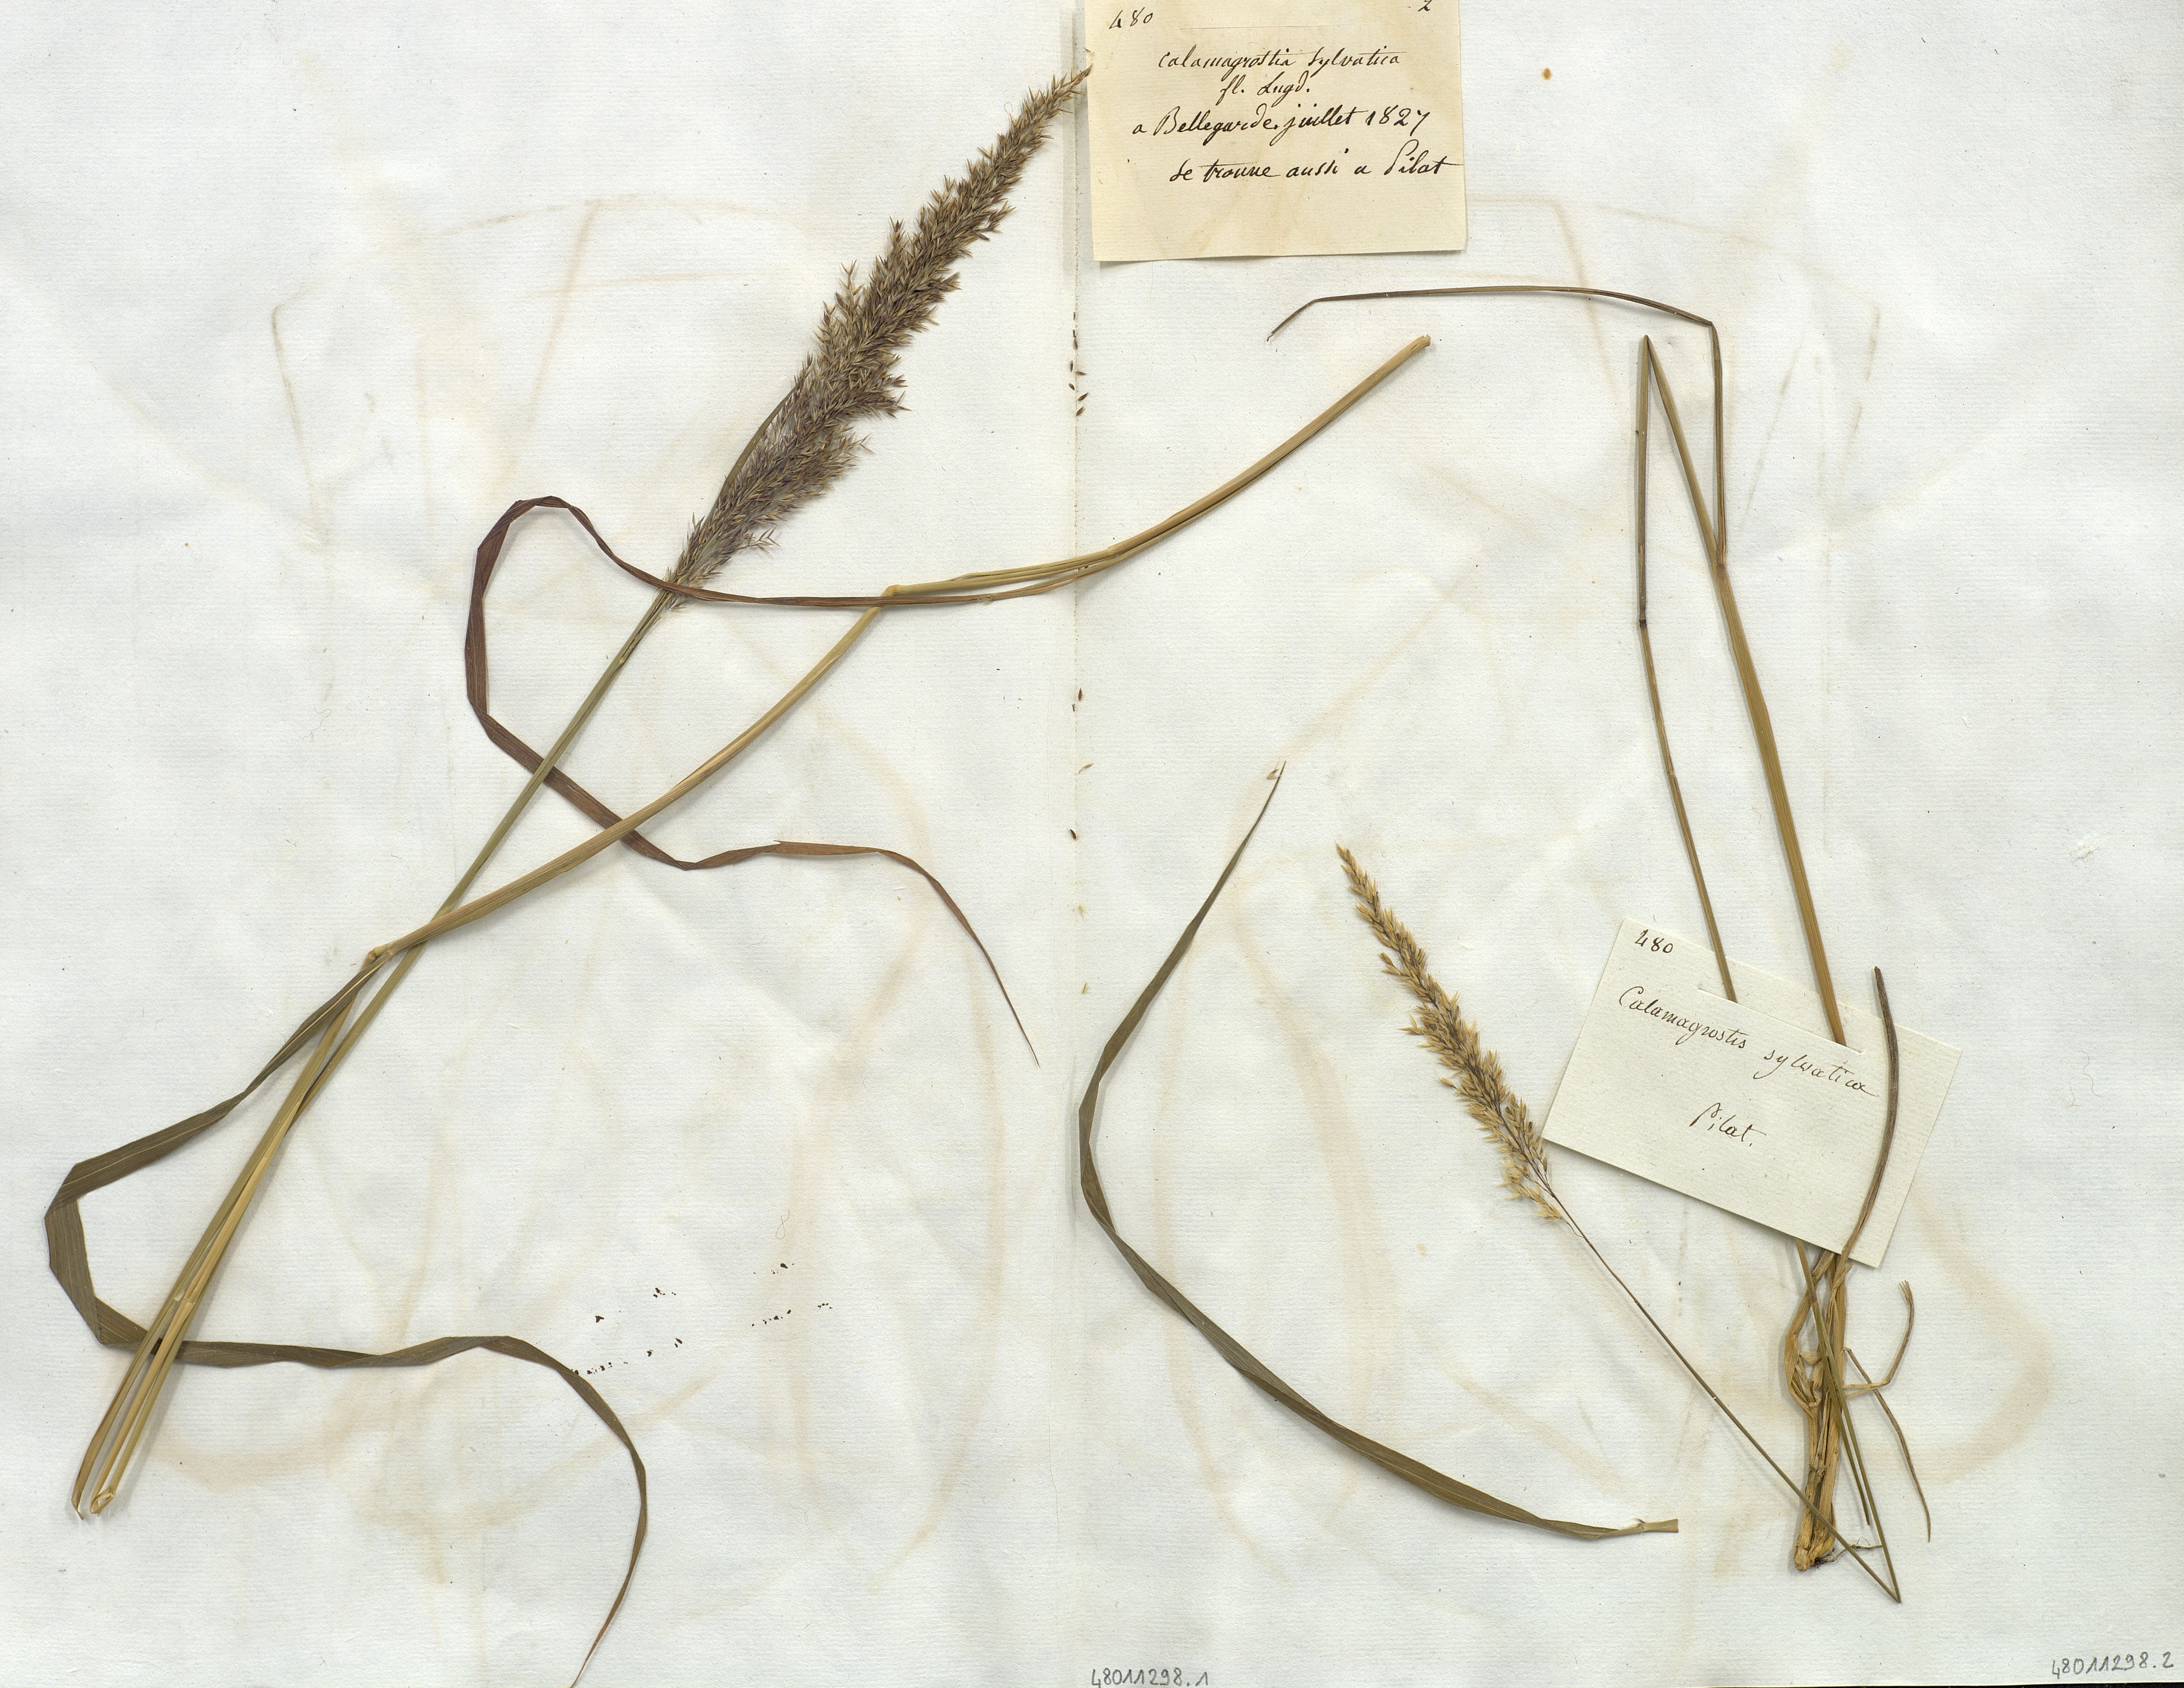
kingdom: Plantae
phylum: Tracheophyta
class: Liliopsida
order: Poales
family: Poaceae
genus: Calamagrostis
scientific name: Calamagrostis
